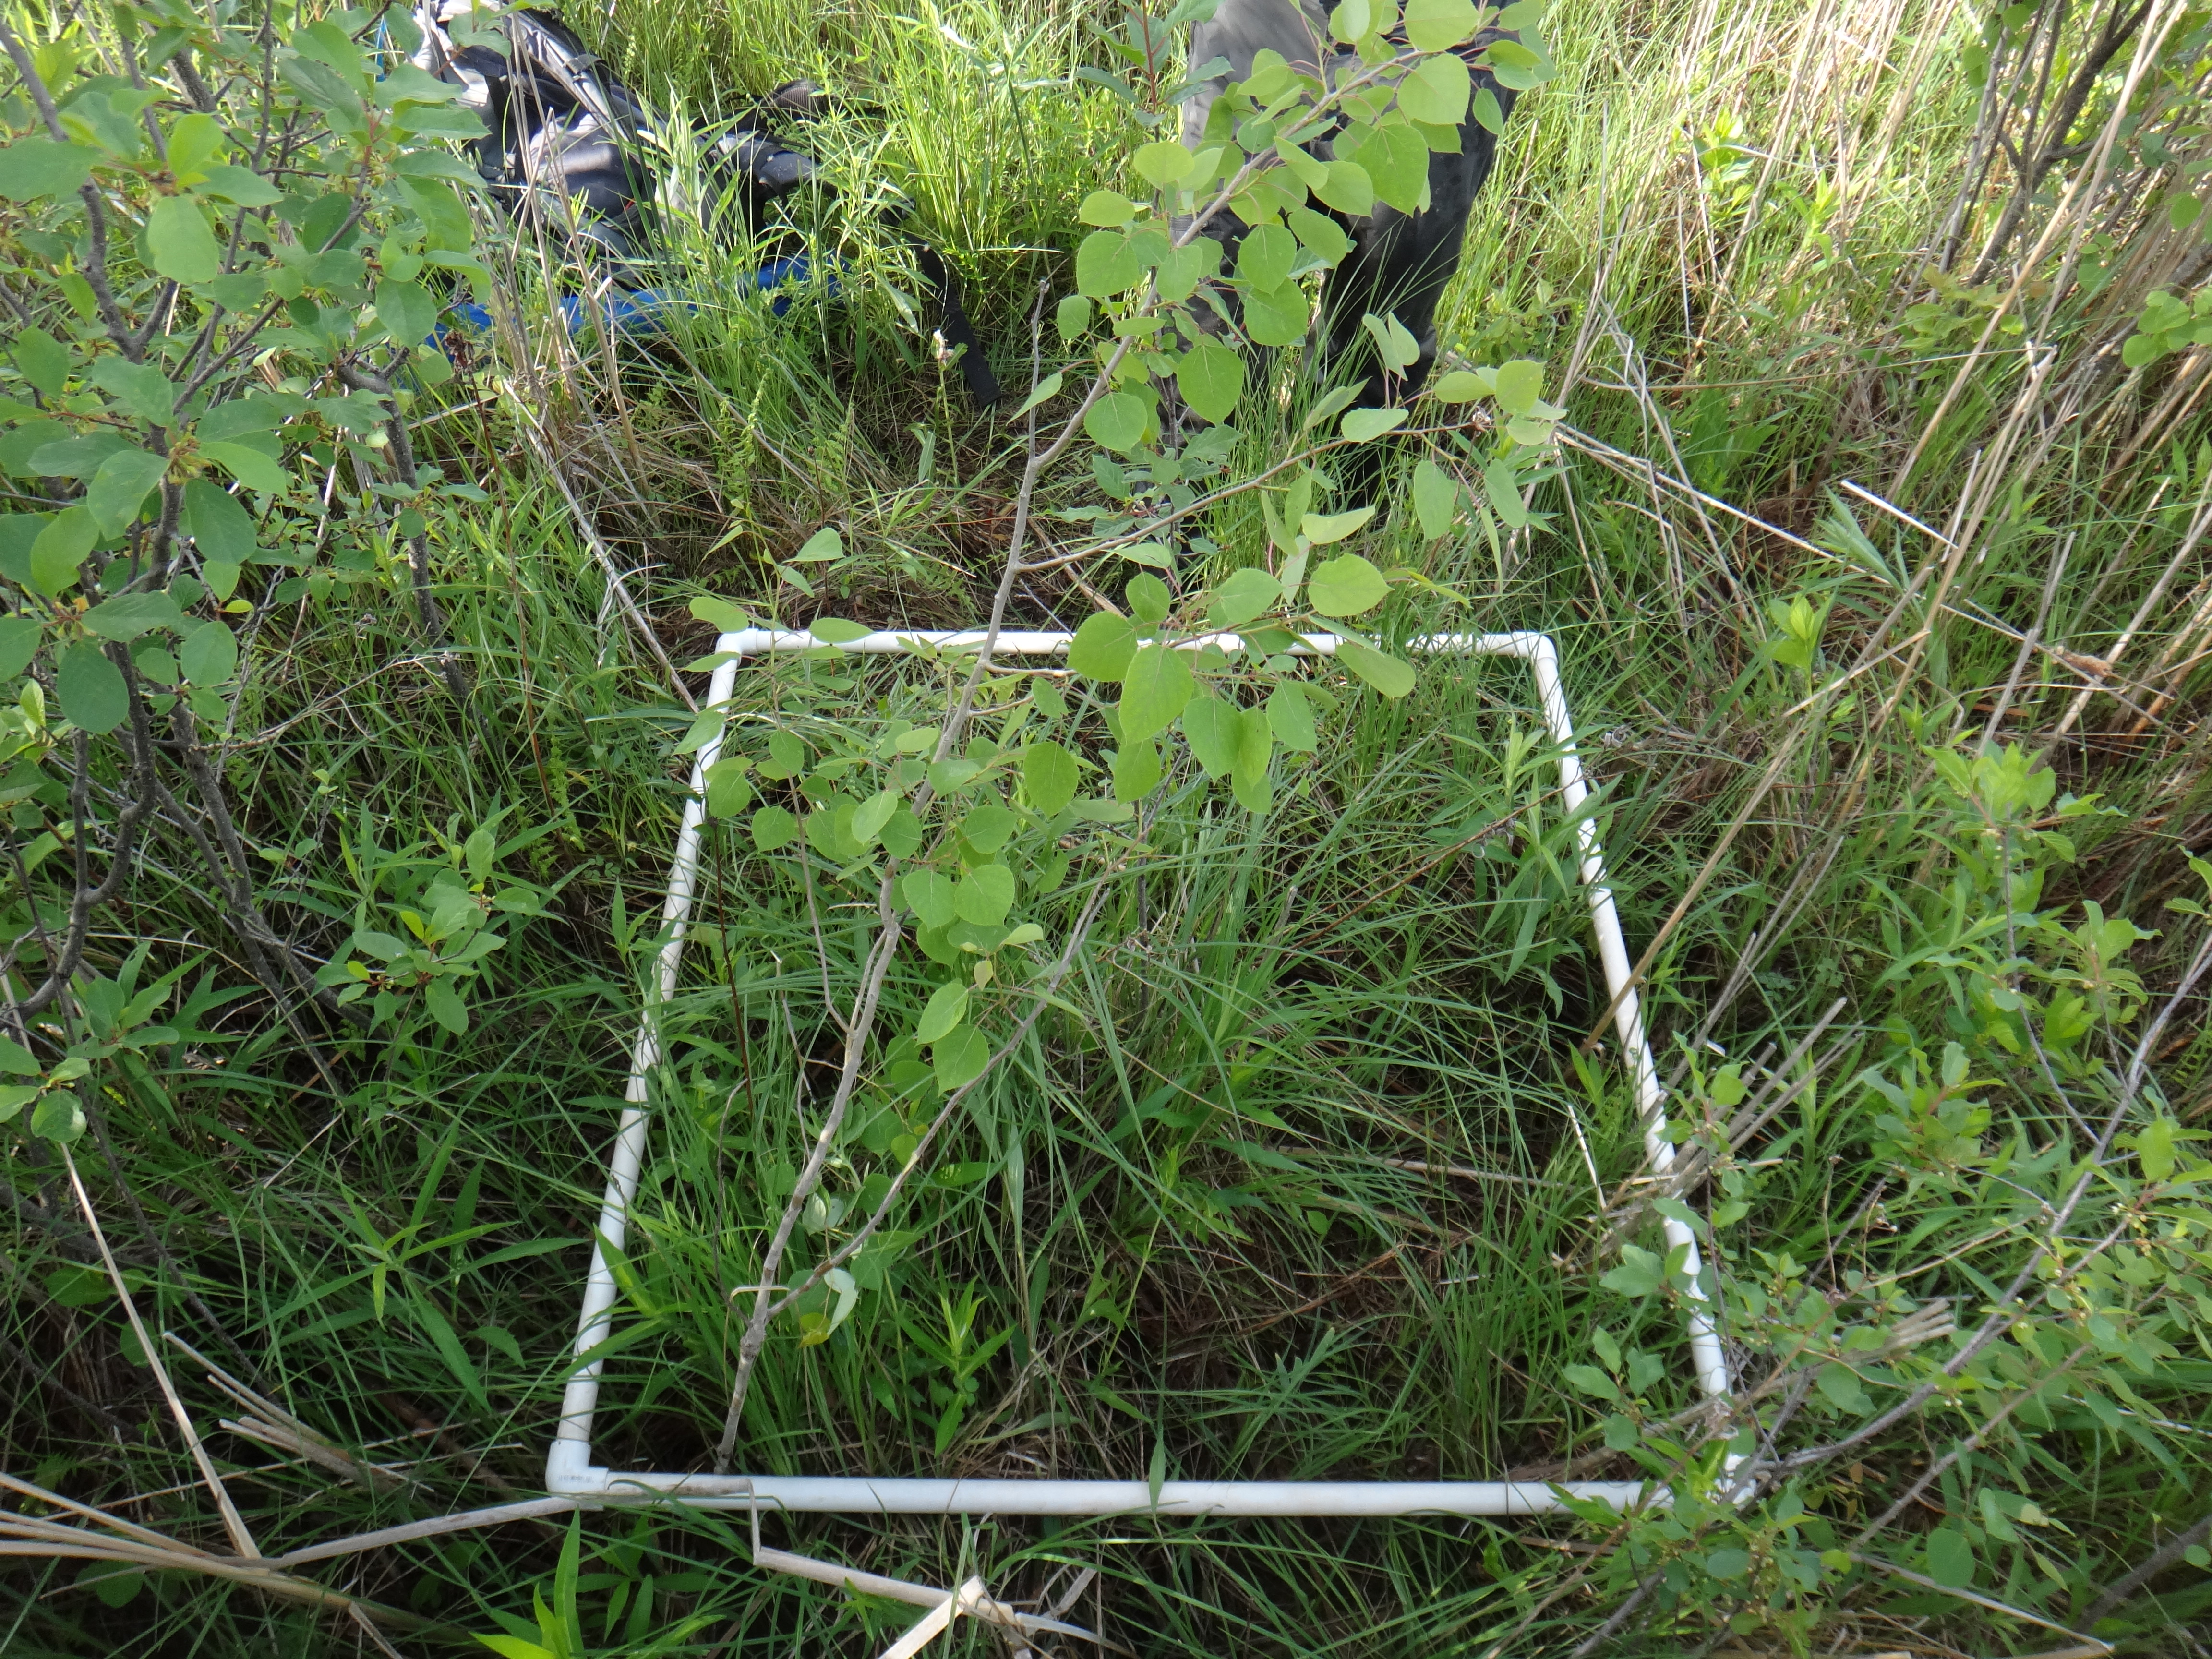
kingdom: Plantae
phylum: Tracheophyta
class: Magnoliopsida
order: Ranunculales
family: Ranunculaceae
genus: Thalictrum
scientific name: Thalictrum dasycarpum
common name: Purple meadow-rue
